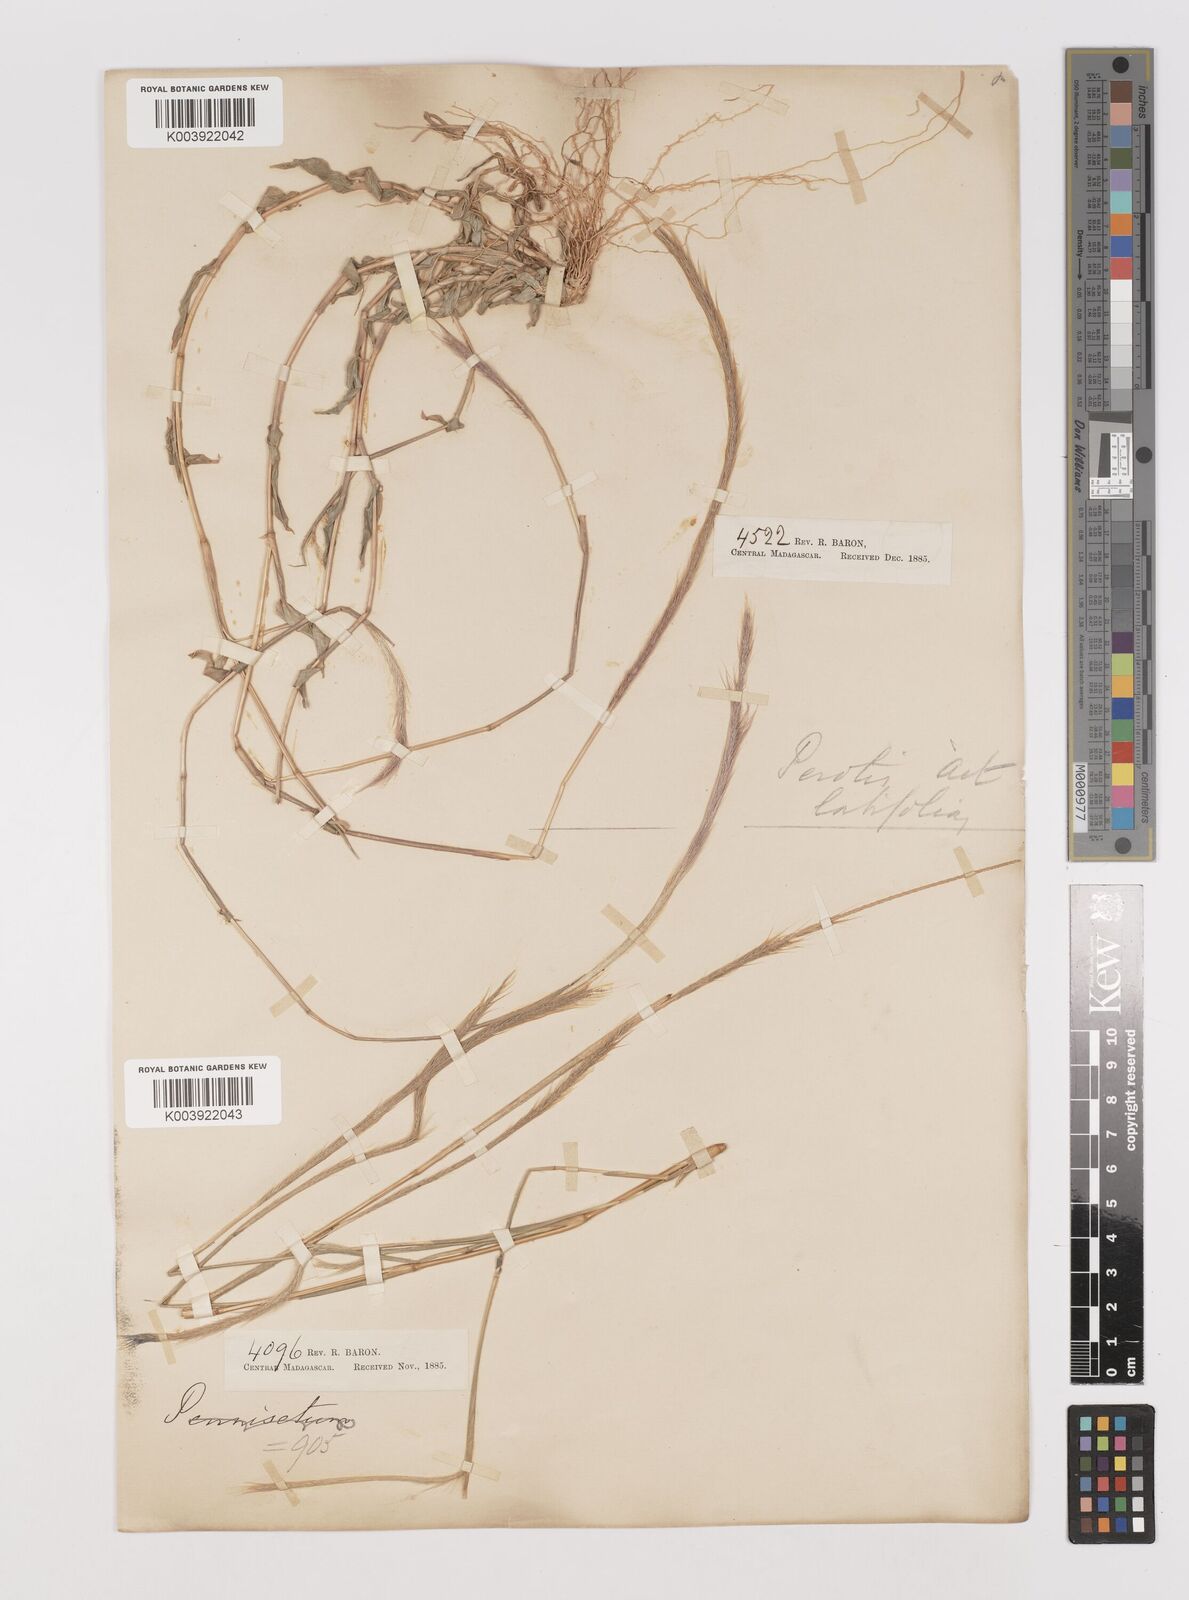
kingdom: Plantae
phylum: Tracheophyta
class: Liliopsida
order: Poales
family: Poaceae
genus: Perotis
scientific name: Perotis patens
